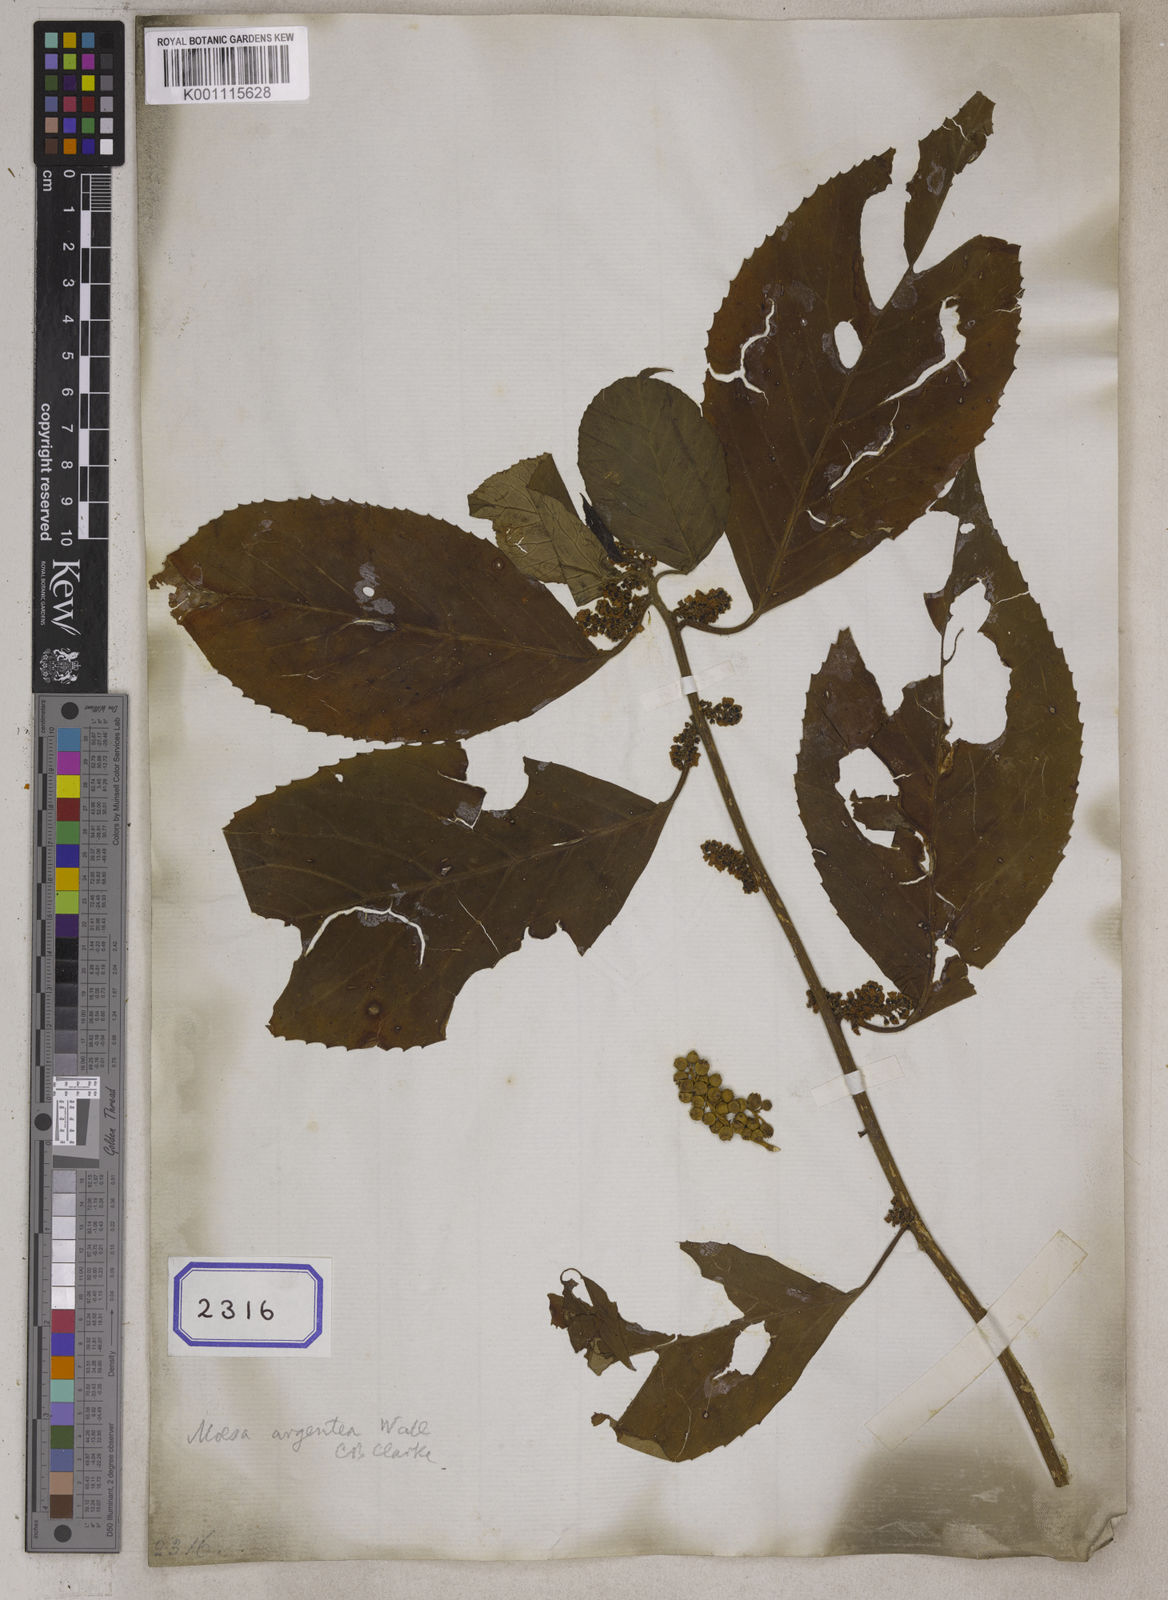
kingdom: Plantae
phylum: Tracheophyta
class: Magnoliopsida
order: Ericales
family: Primulaceae
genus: Maesa
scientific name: Maesa argentea
